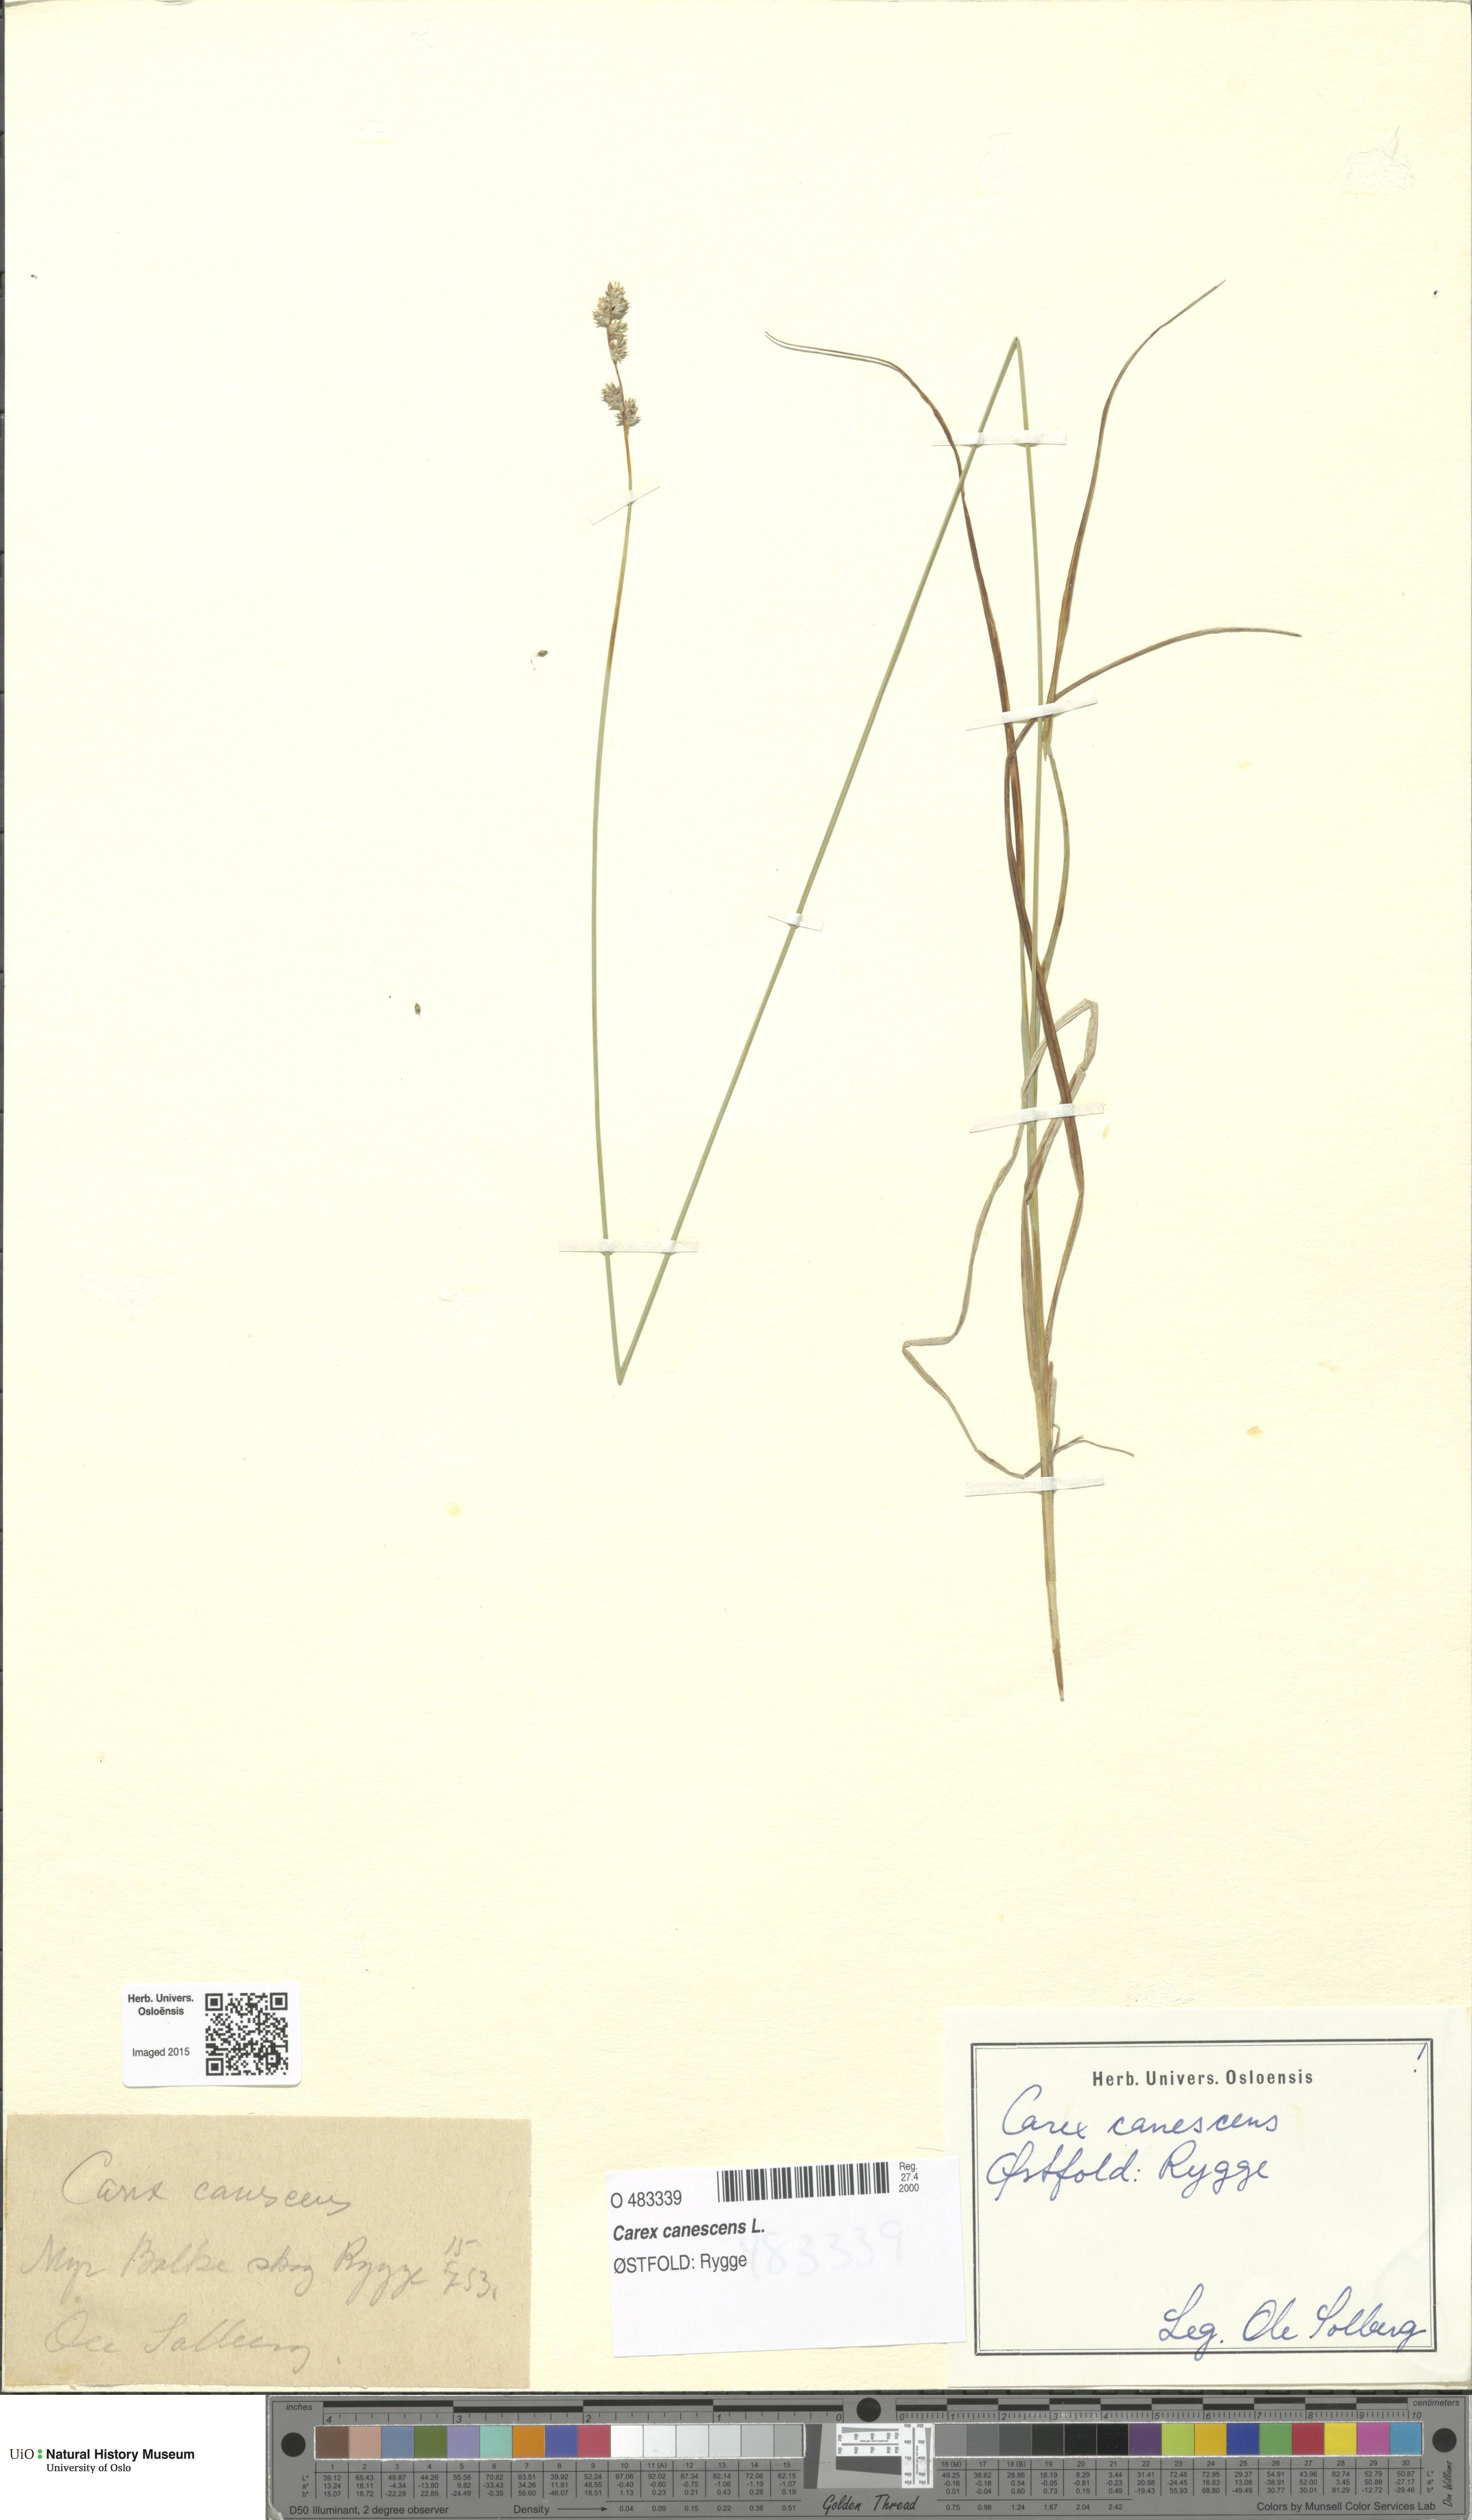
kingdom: Plantae
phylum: Tracheophyta
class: Liliopsida
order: Poales
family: Cyperaceae
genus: Carex
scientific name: Carex canescens
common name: White sedge
